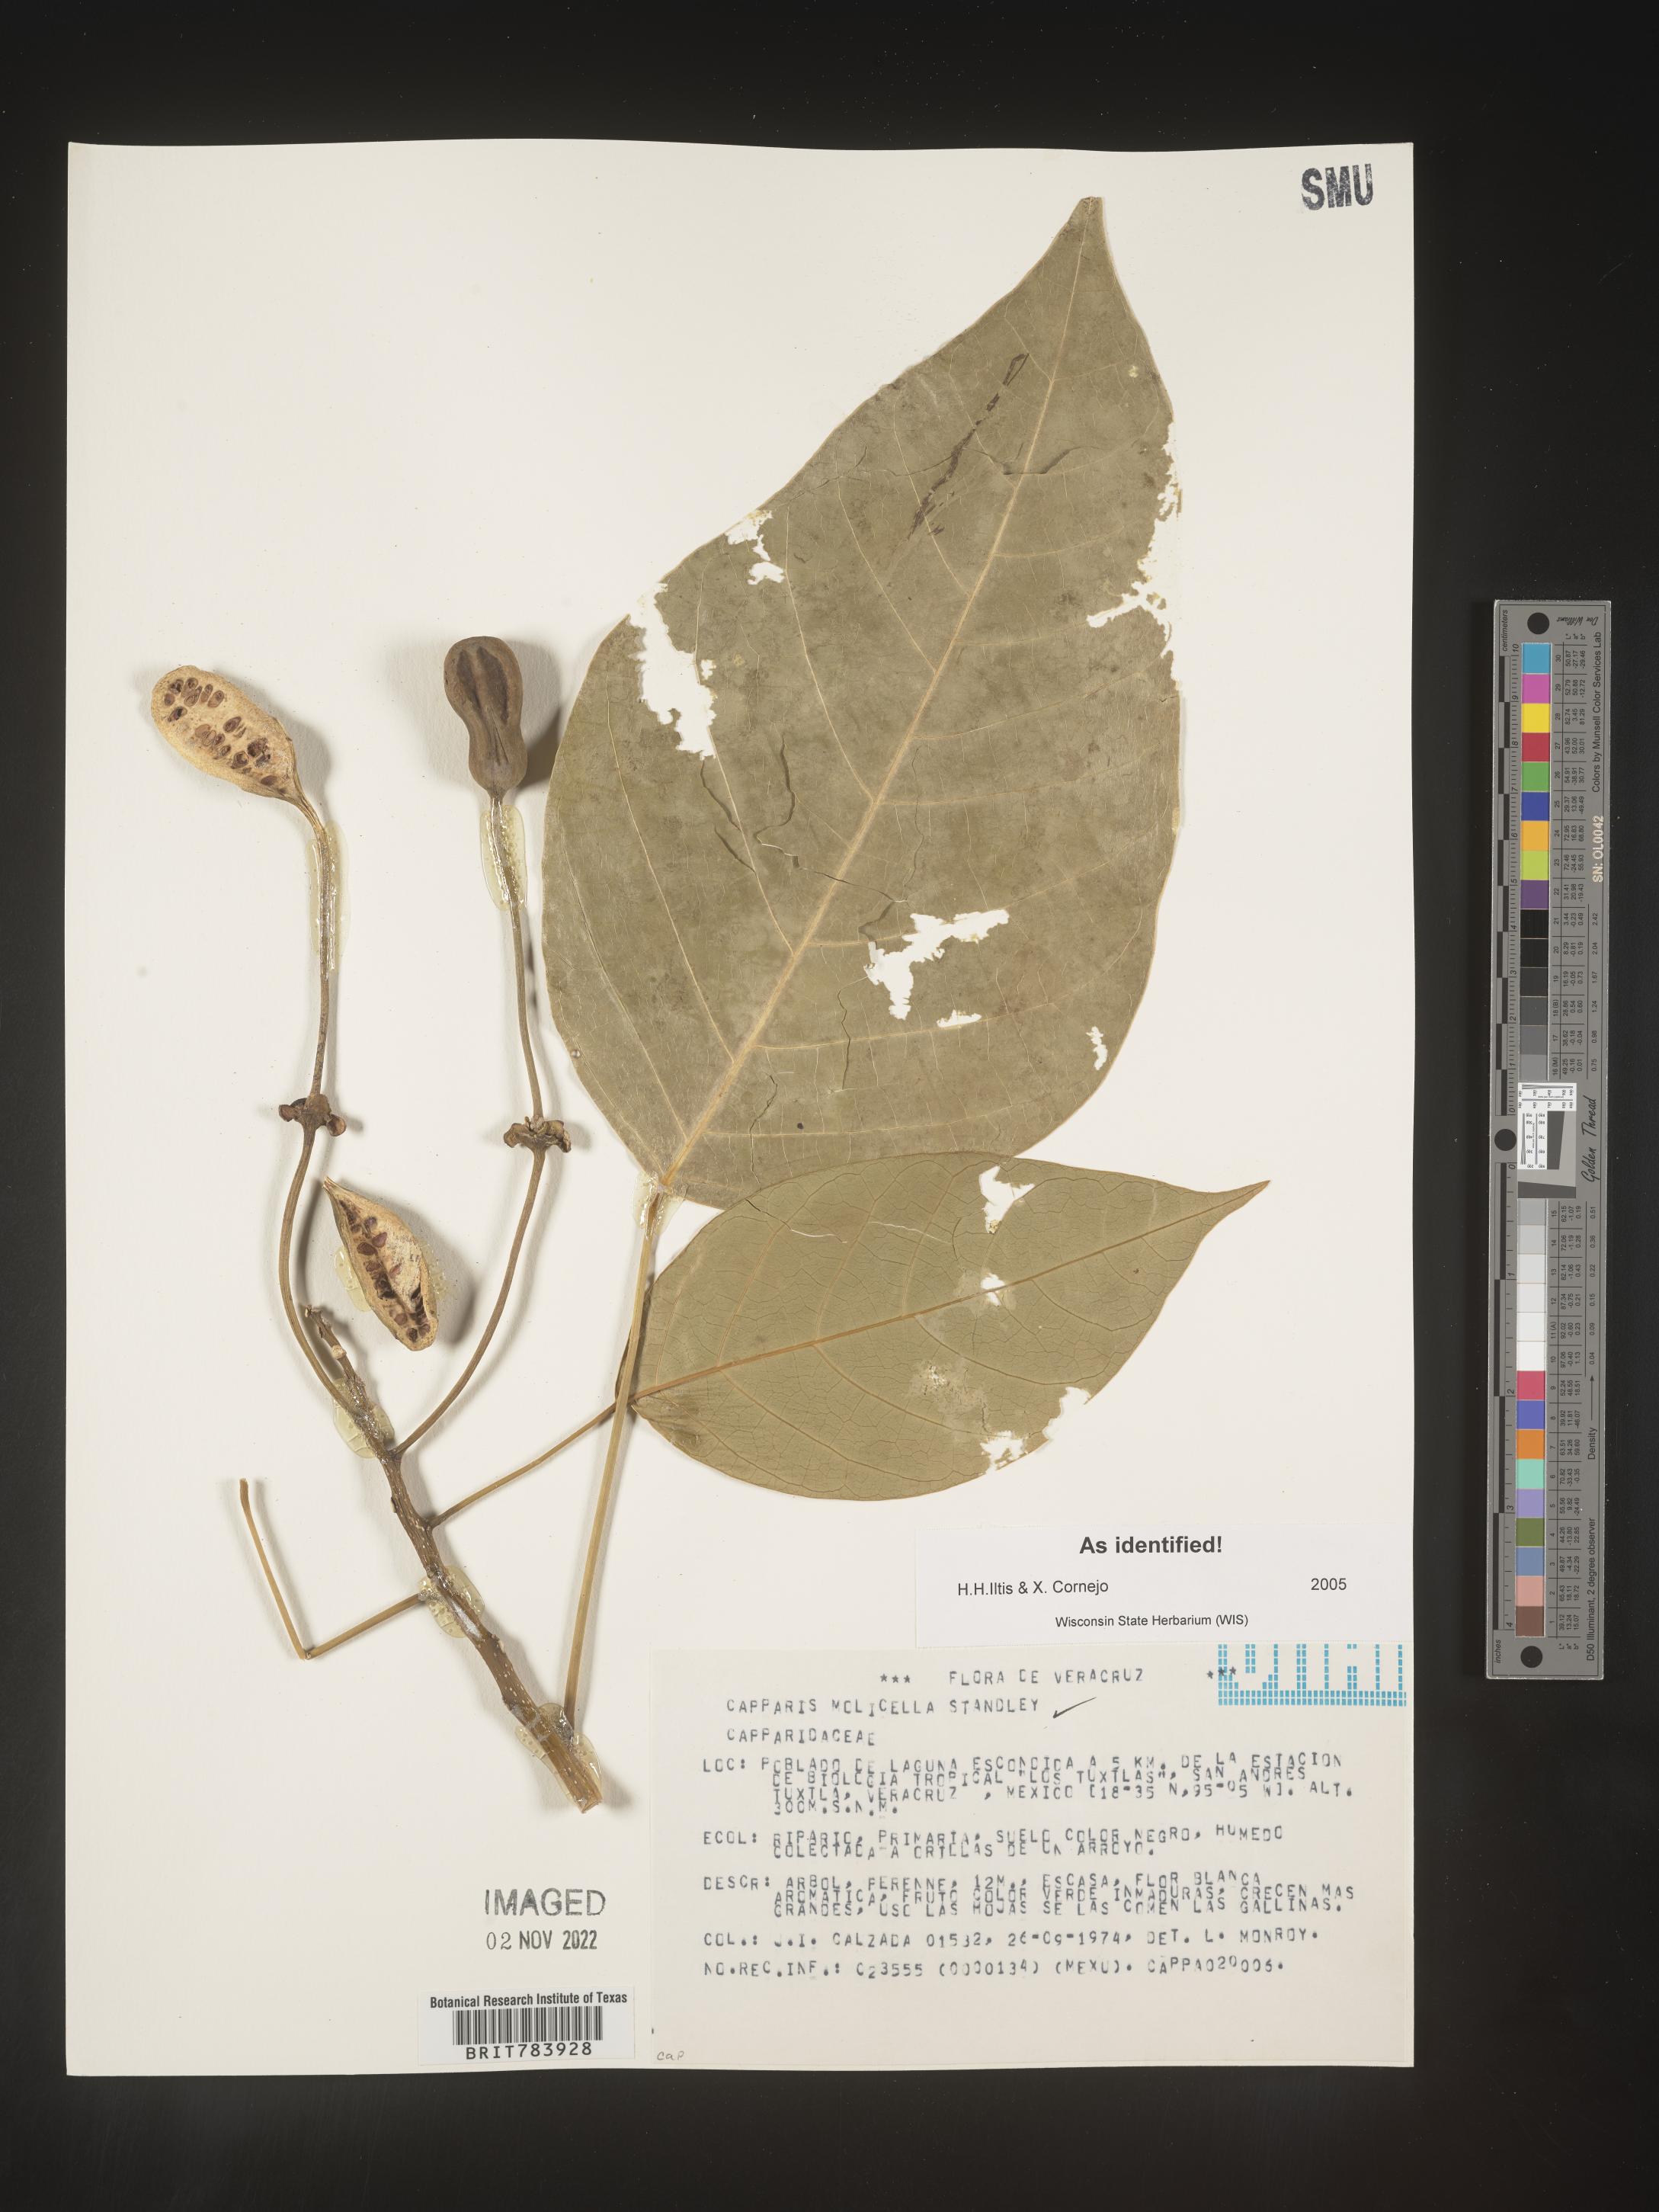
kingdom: Plantae
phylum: Tracheophyta
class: Magnoliopsida
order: Brassicales
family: Capparaceae
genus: Capparis
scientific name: Capparis
